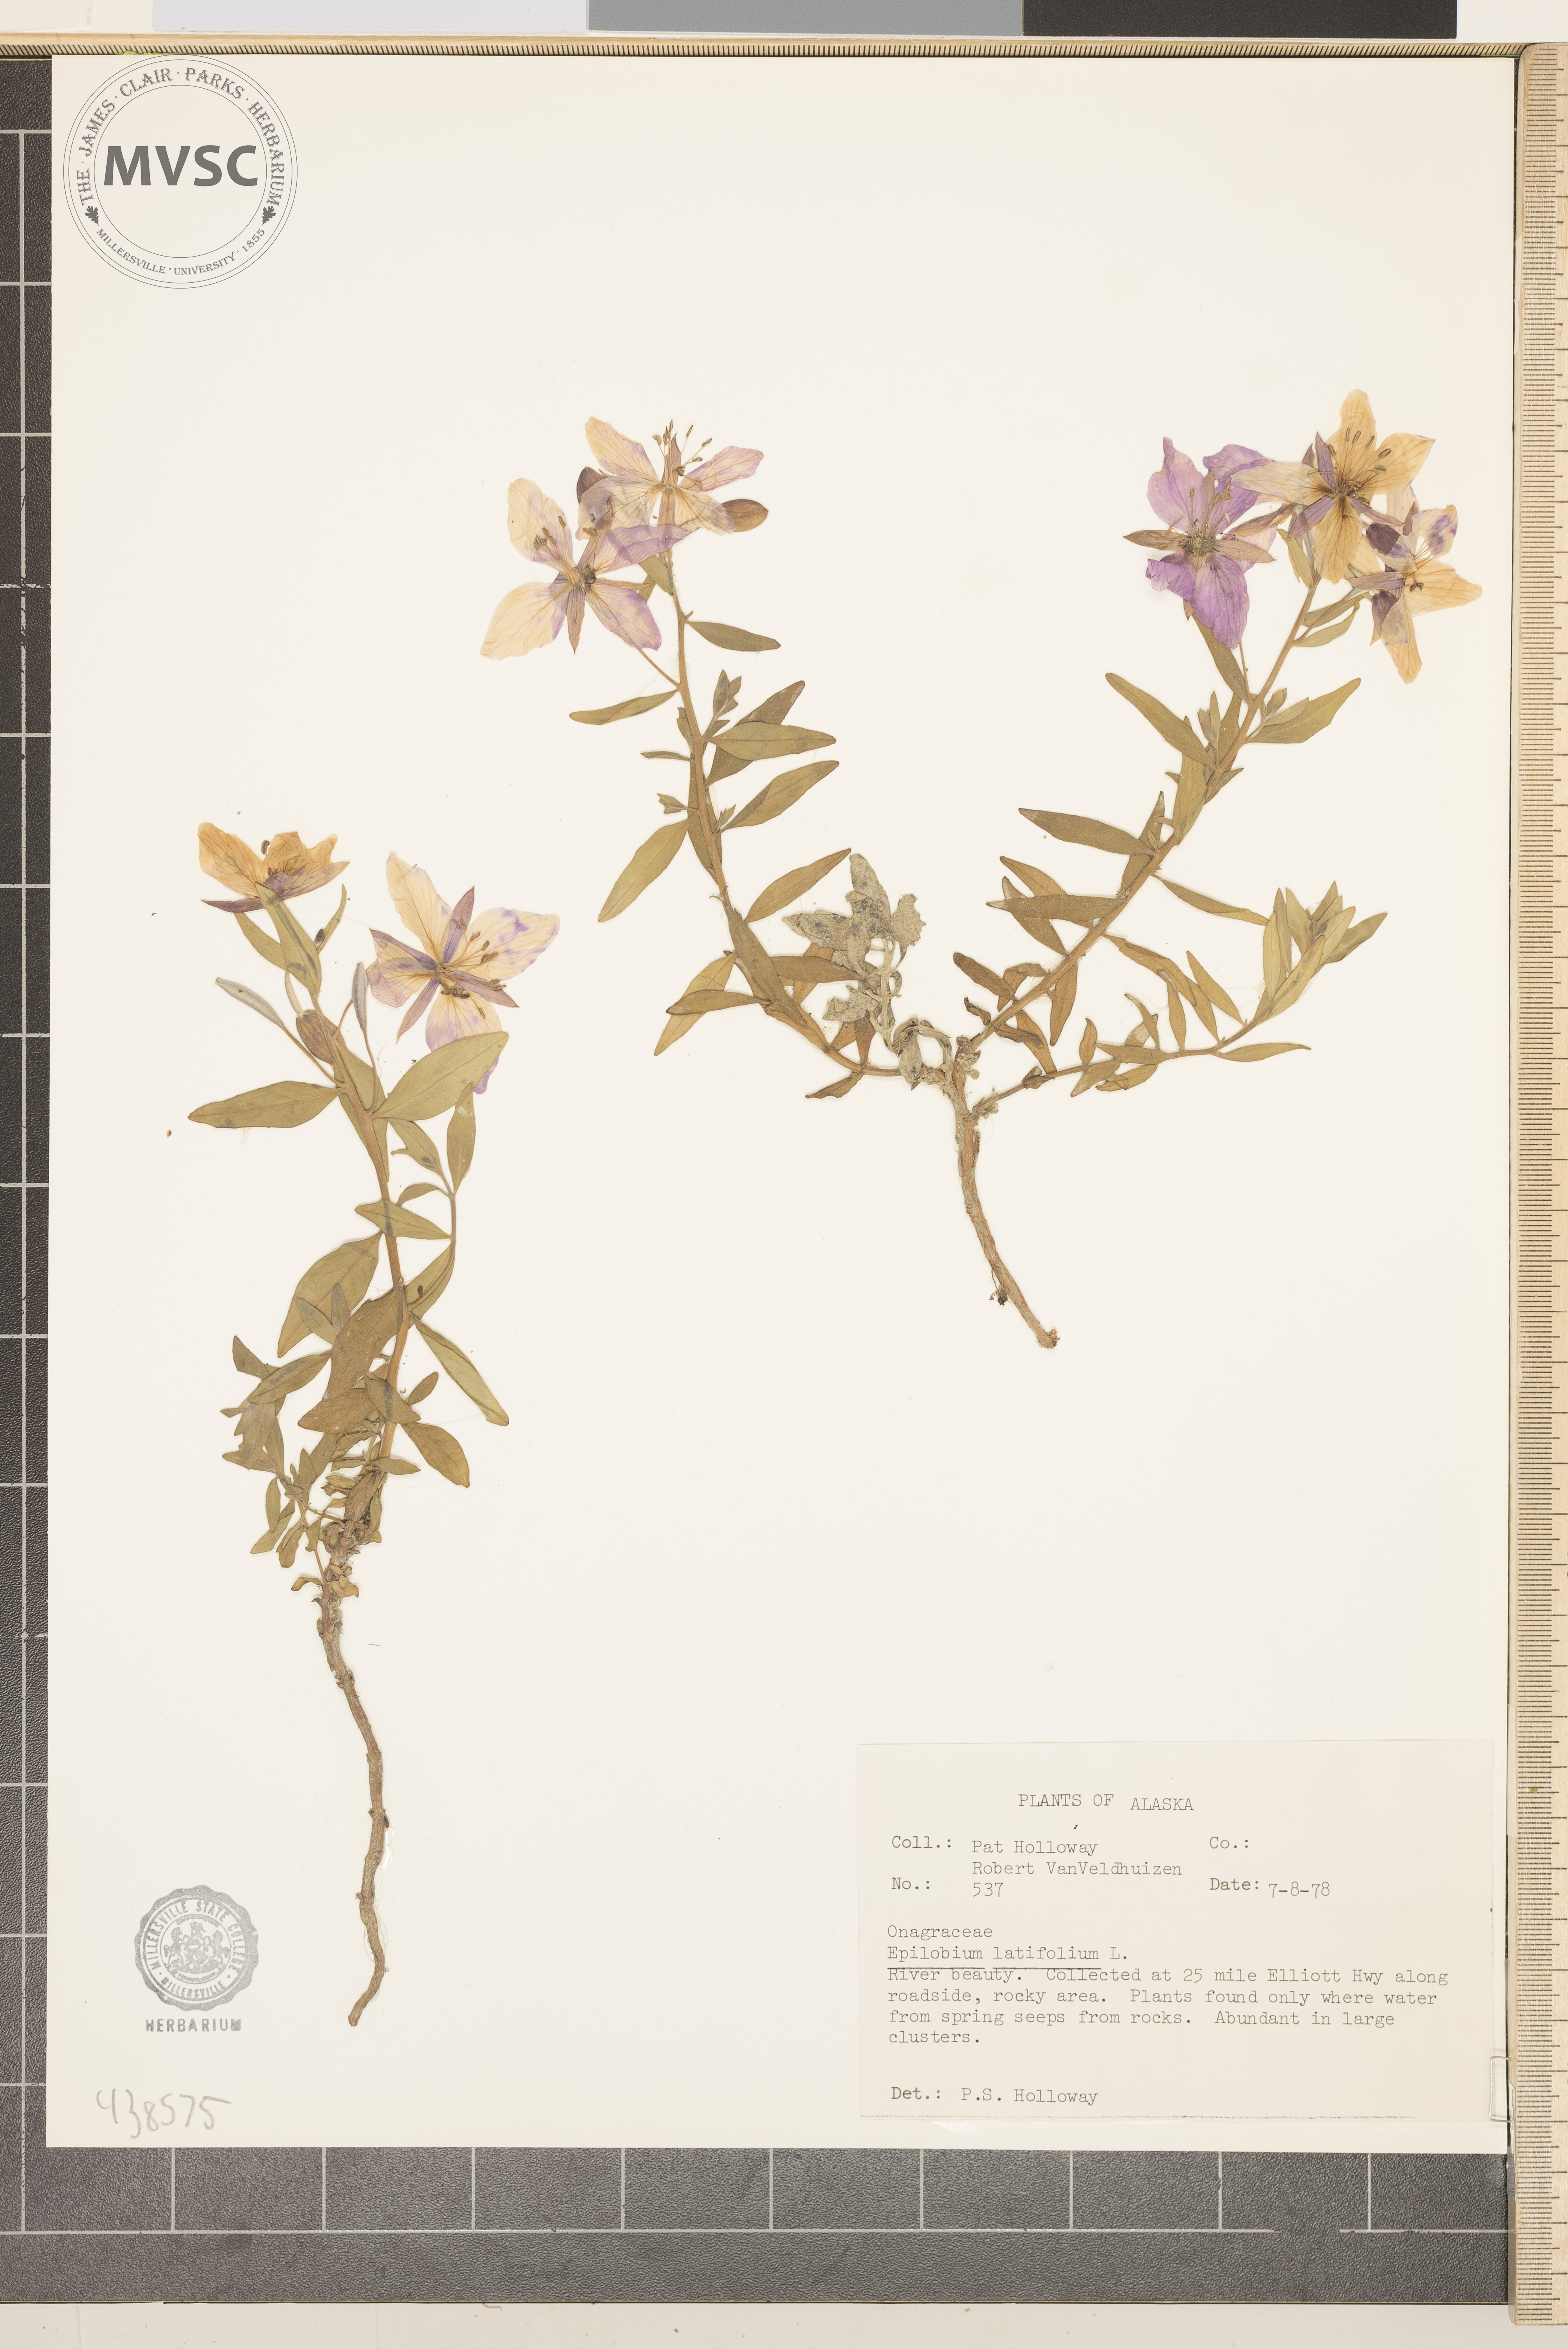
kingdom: Plantae
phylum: Tracheophyta
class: Magnoliopsida
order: Myrtales
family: Onagraceae
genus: Chamaenerion
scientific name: Chamaenerion latifolium
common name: Dwarf fireweed
